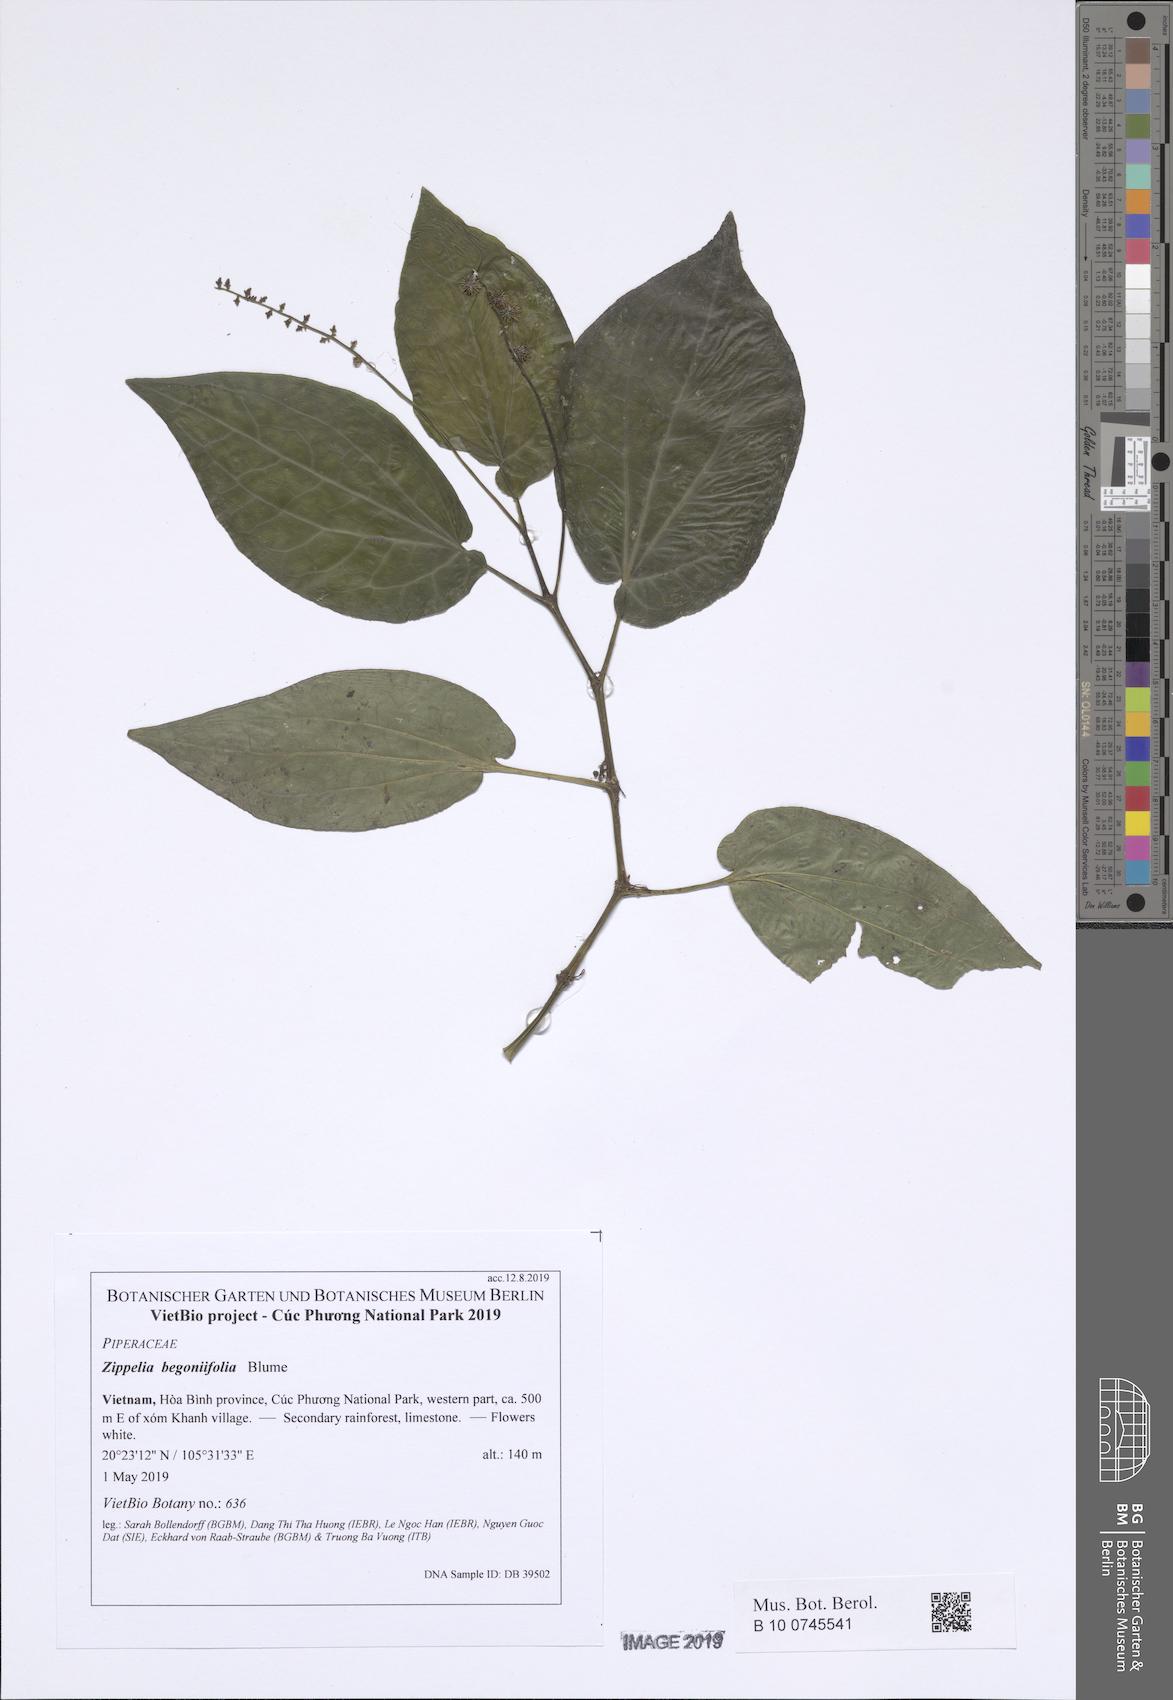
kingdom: Plantae
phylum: Tracheophyta
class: Magnoliopsida
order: Piperales
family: Piperaceae
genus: Zippelia
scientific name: Zippelia begoniifolia
